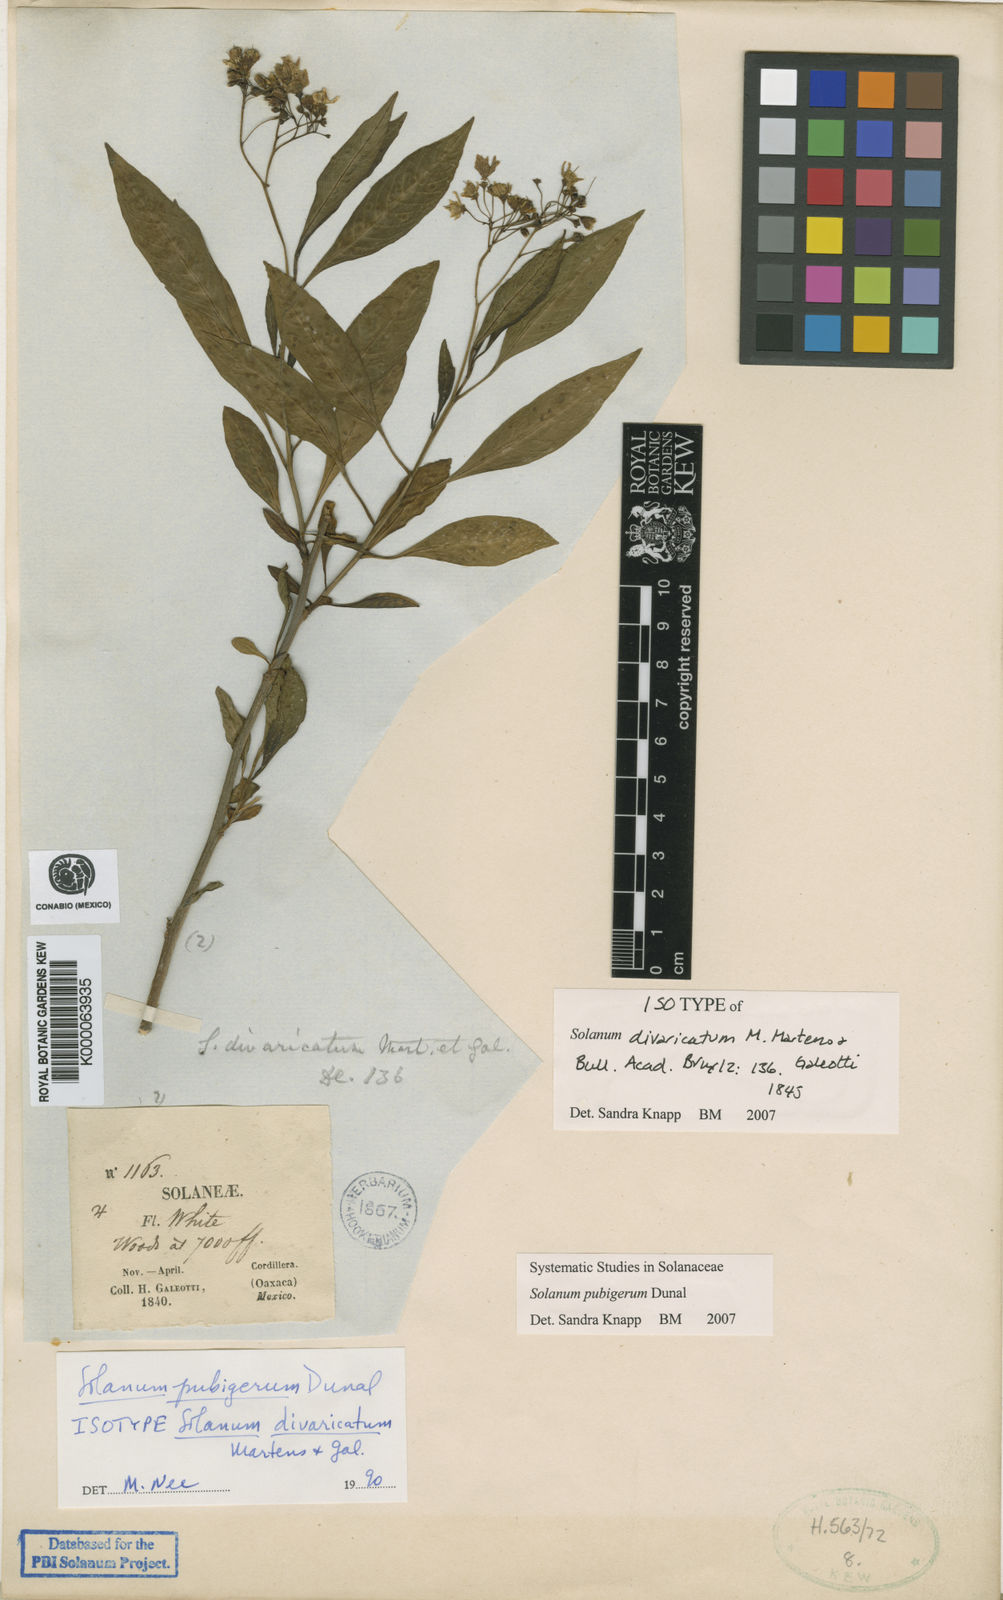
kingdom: Plantae
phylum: Tracheophyta
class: Magnoliopsida
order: Solanales
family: Solanaceae
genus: Solanum
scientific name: Solanum pubigerum
